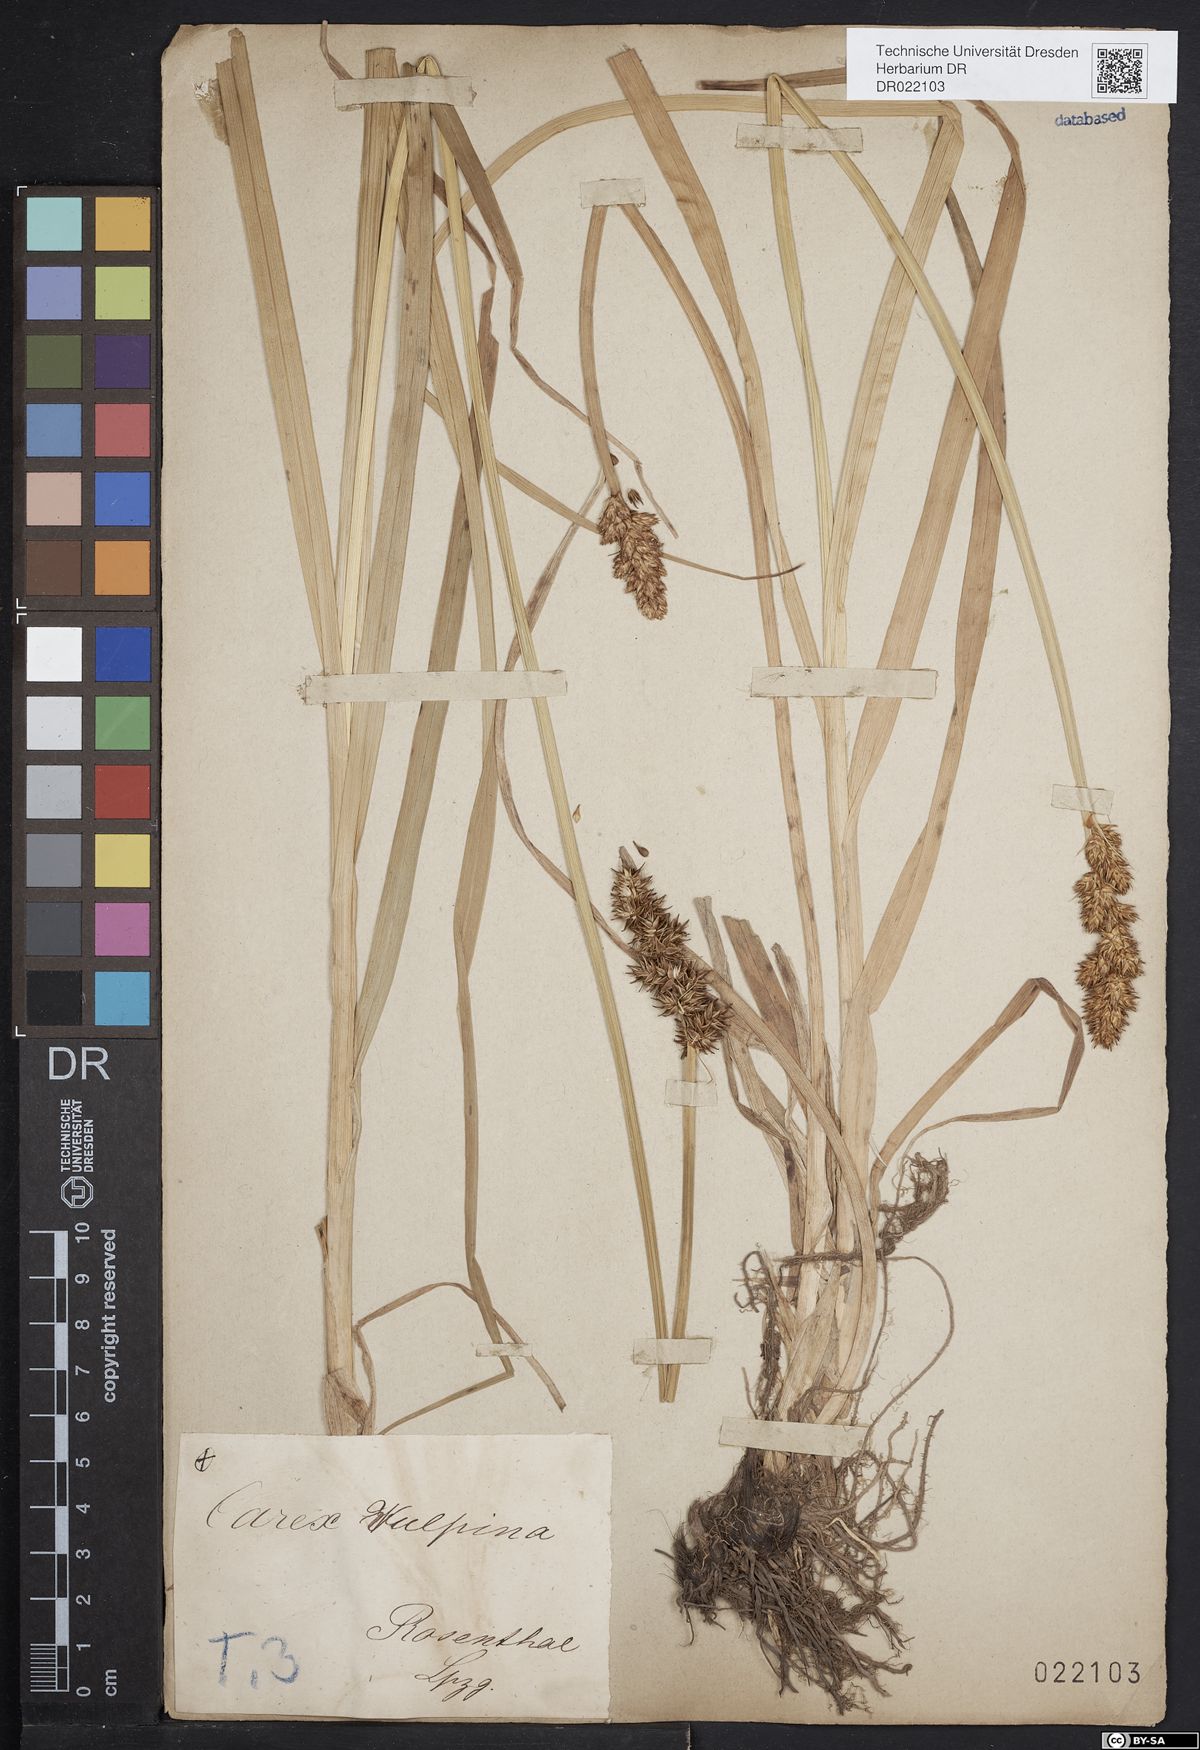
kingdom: Plantae
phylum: Tracheophyta
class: Liliopsida
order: Poales
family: Cyperaceae
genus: Carex
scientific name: Carex vulpina
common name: True fox-sedge
